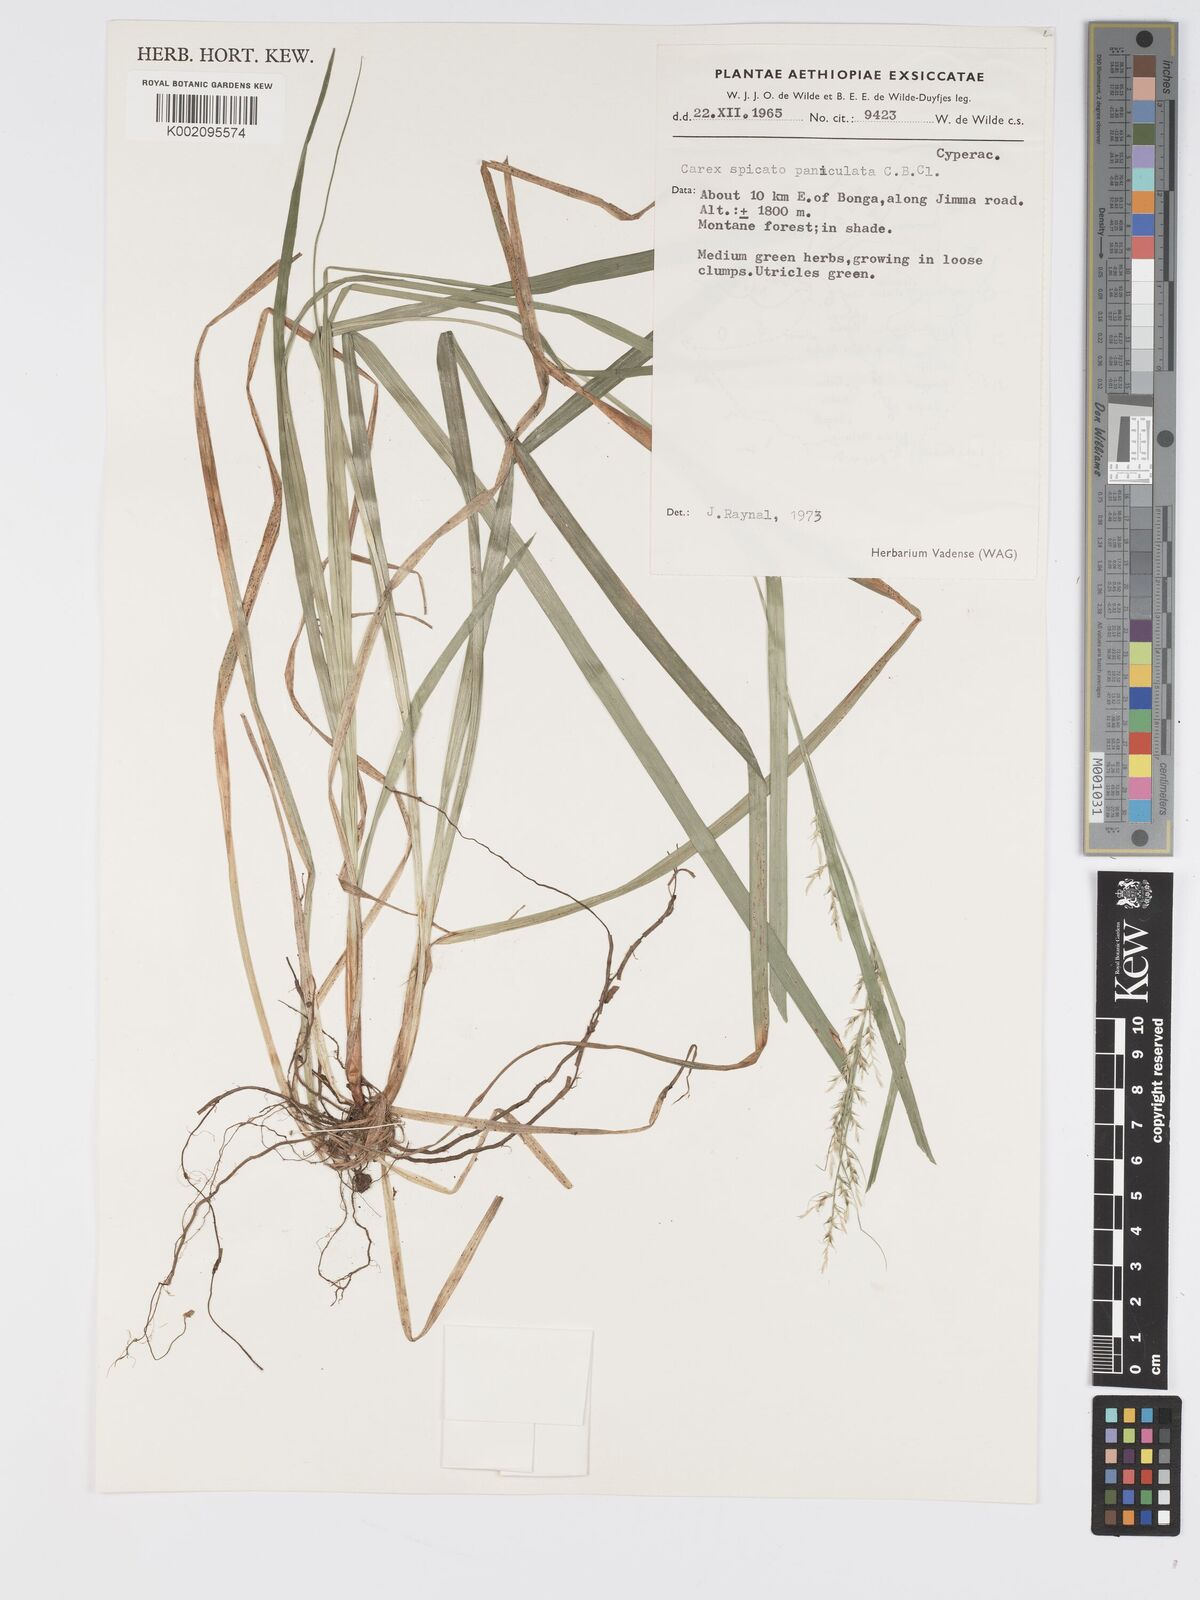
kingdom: Plantae
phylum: Tracheophyta
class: Liliopsida
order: Poales
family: Cyperaceae
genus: Carex
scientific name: Carex chlorosaccus
